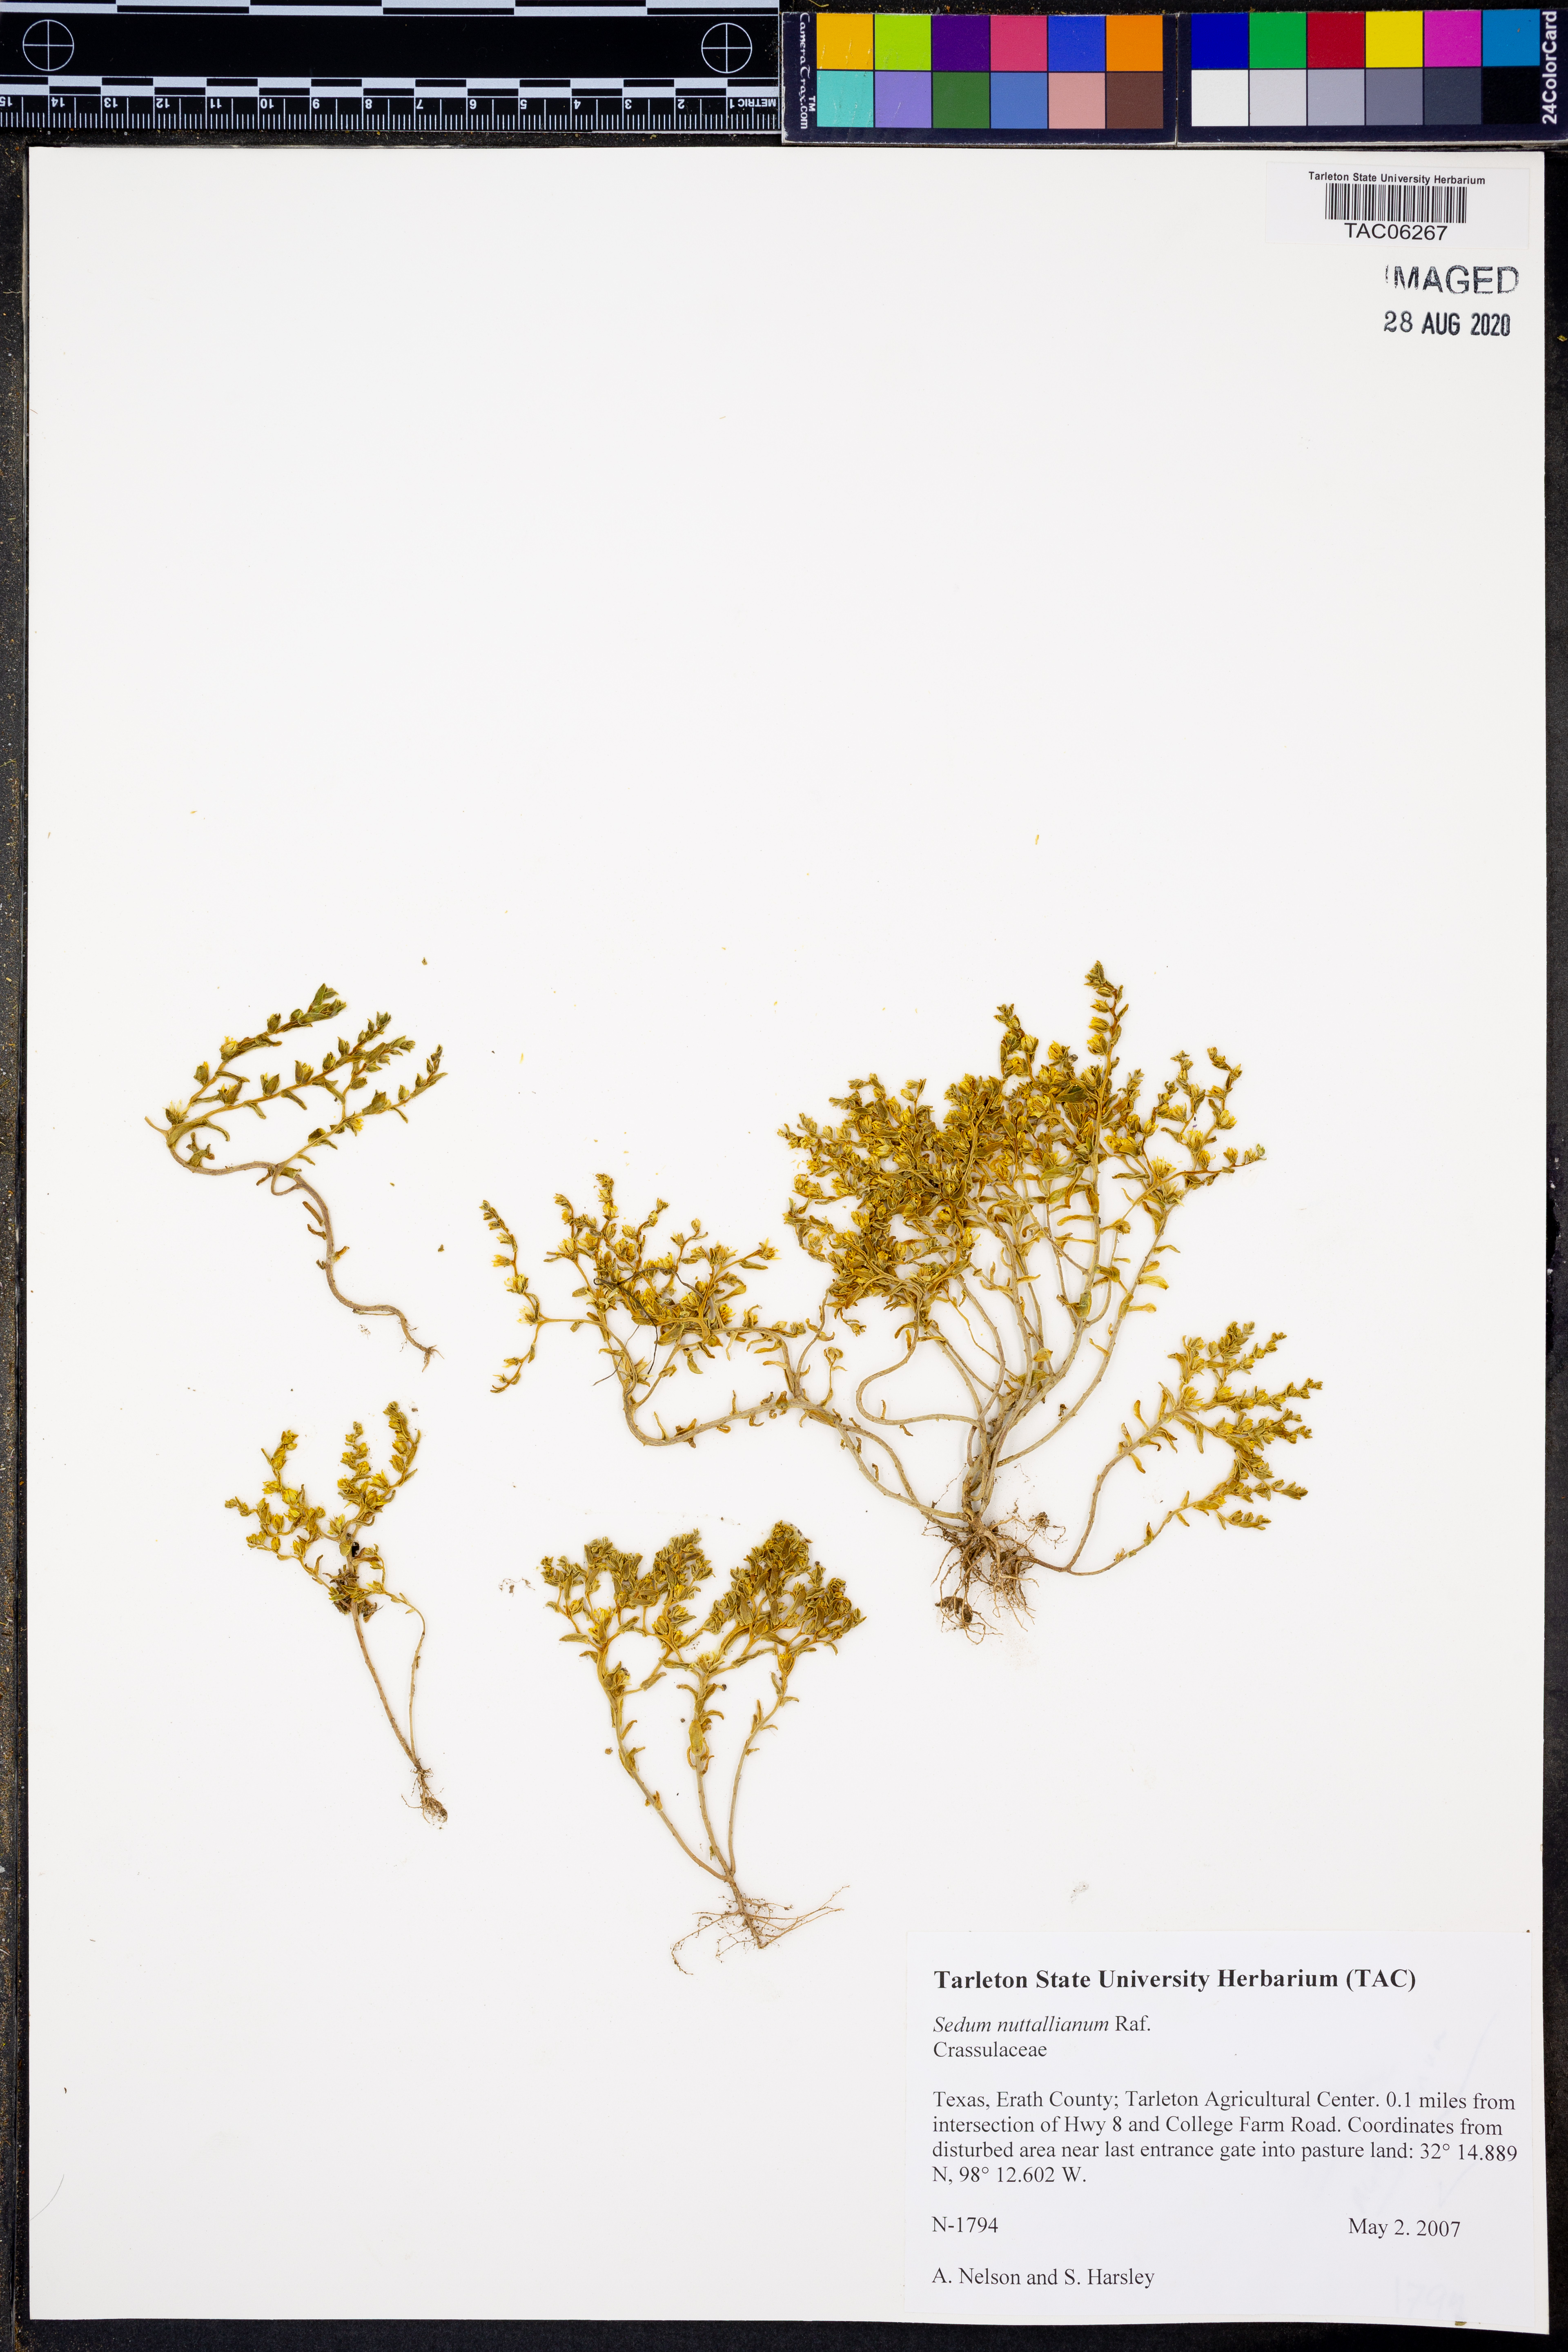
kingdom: Plantae
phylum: Tracheophyta
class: Magnoliopsida
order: Saxifragales
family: Crassulaceae
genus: Sedum
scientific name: Sedum nuttallii
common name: Yellow stonecrop
